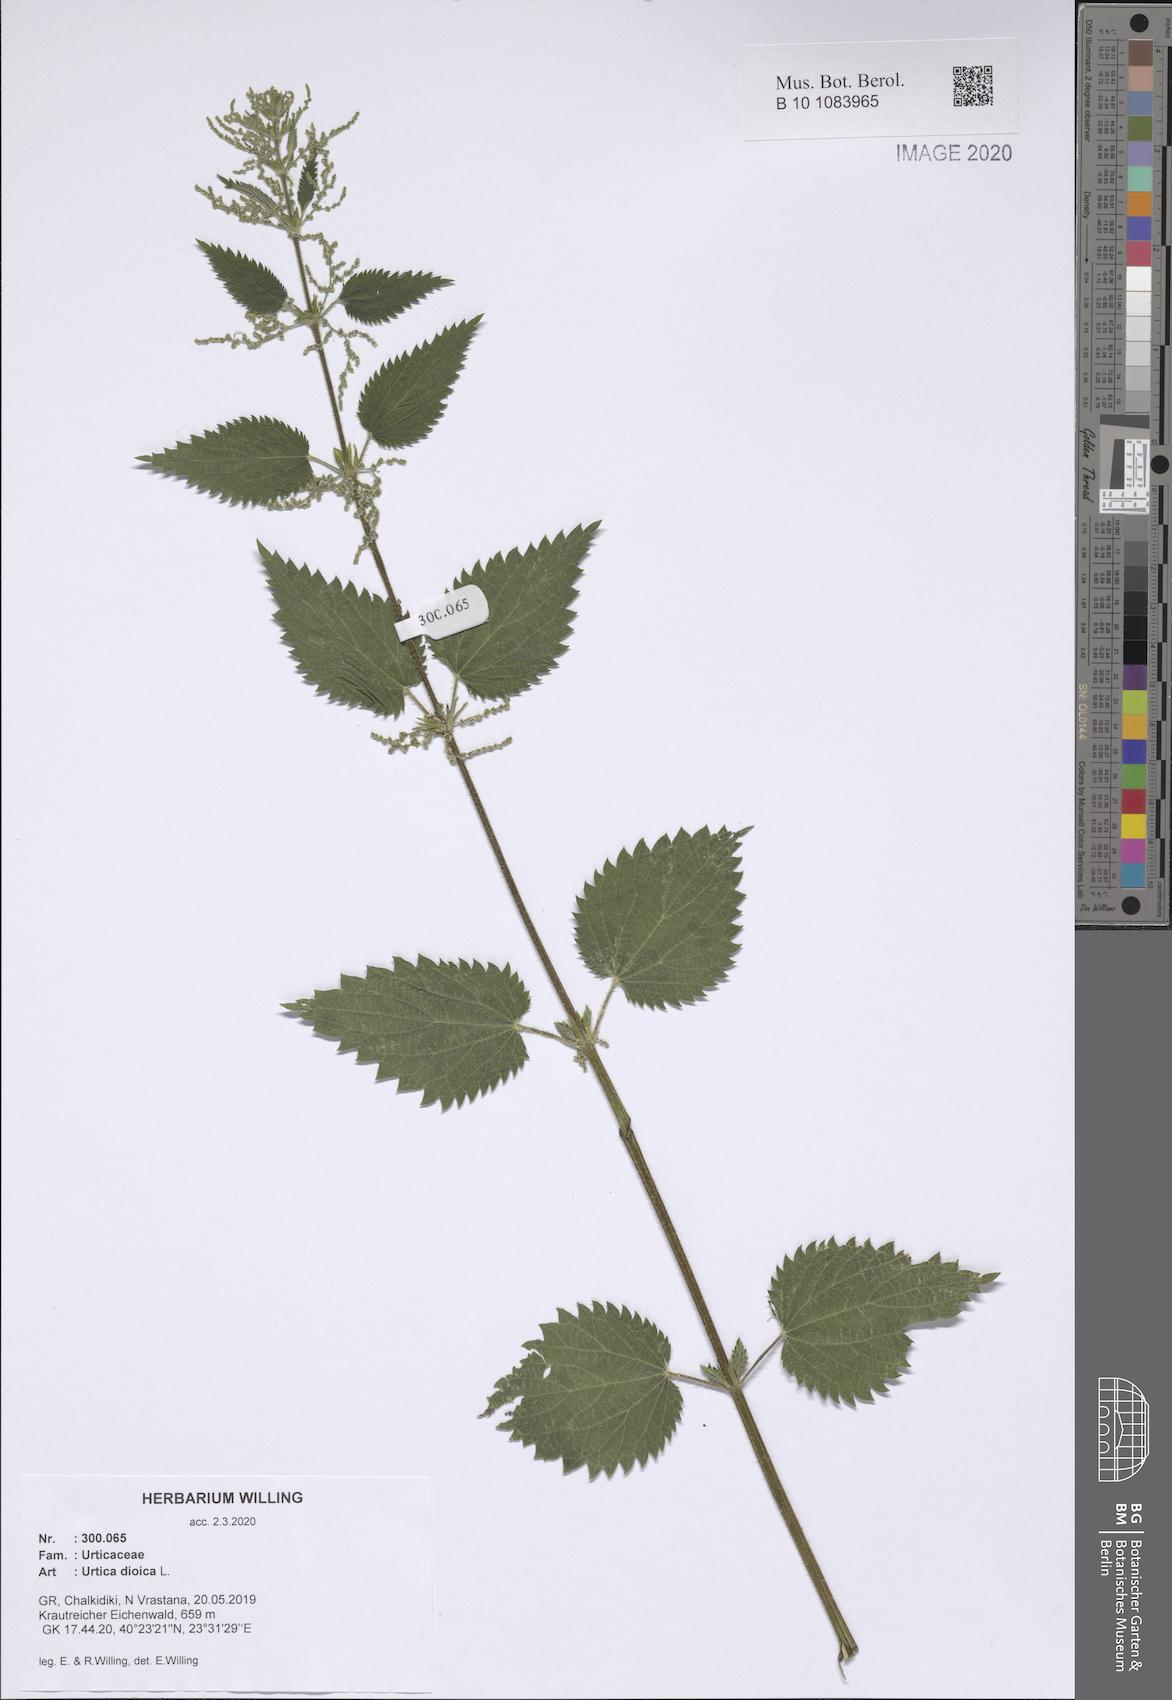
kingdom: Plantae
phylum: Tracheophyta
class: Magnoliopsida
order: Rosales
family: Urticaceae
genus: Urtica
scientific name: Urtica dioica
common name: Common nettle
